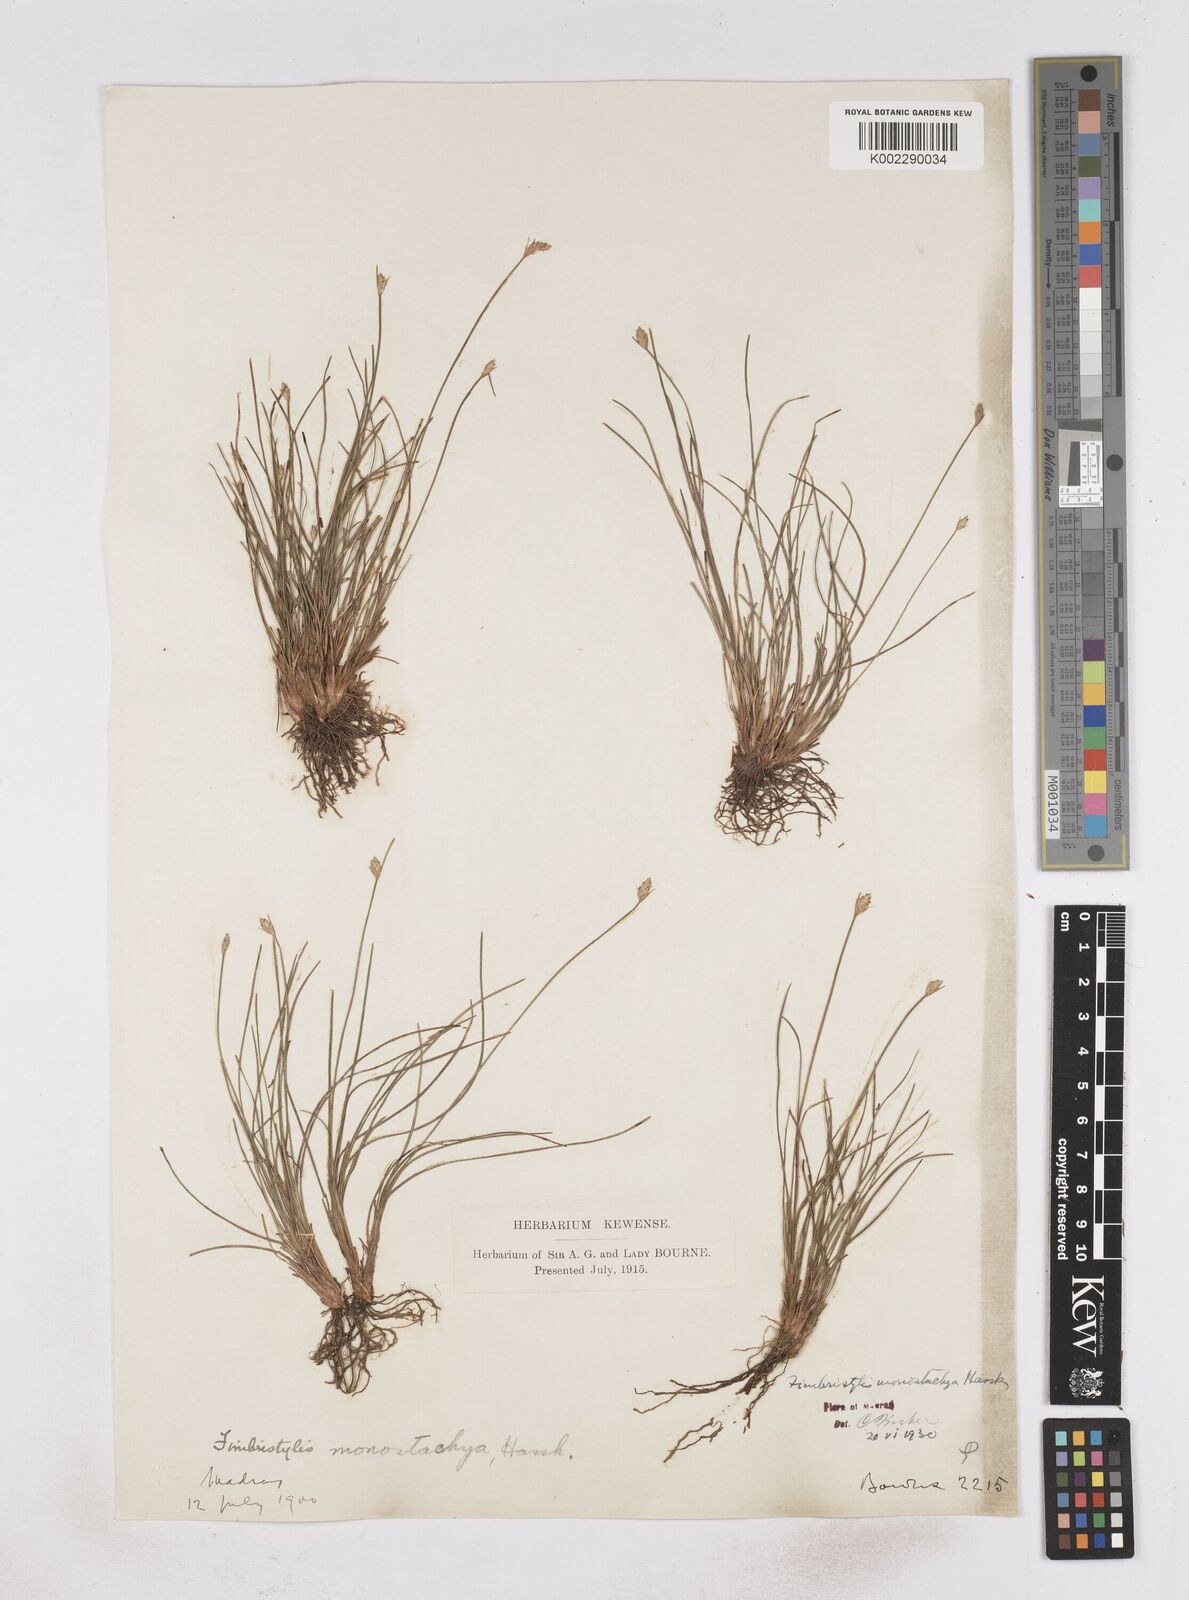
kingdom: Plantae
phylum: Tracheophyta
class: Liliopsida
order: Poales
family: Cyperaceae
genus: Abildgaardia
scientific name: Abildgaardia ovata
